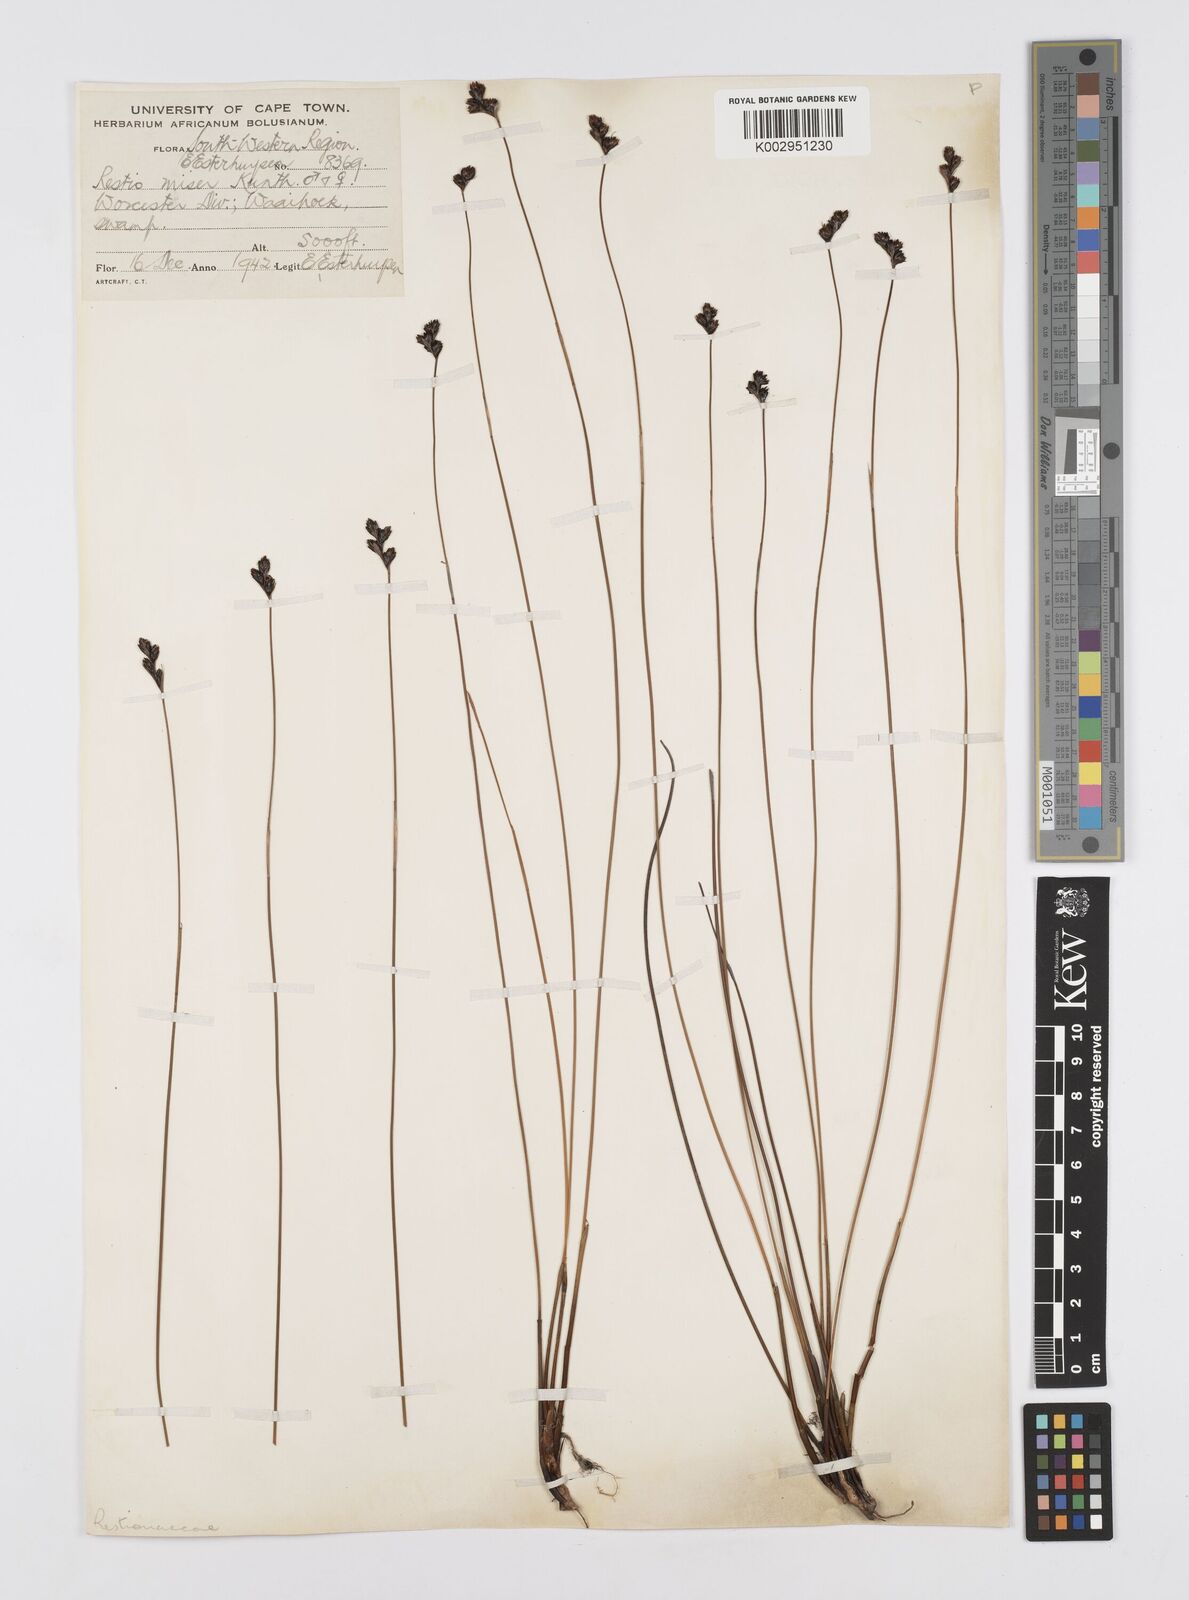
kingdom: Plantae
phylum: Tracheophyta
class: Liliopsida
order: Poales
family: Restionaceae
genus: Restio
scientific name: Restio miser
